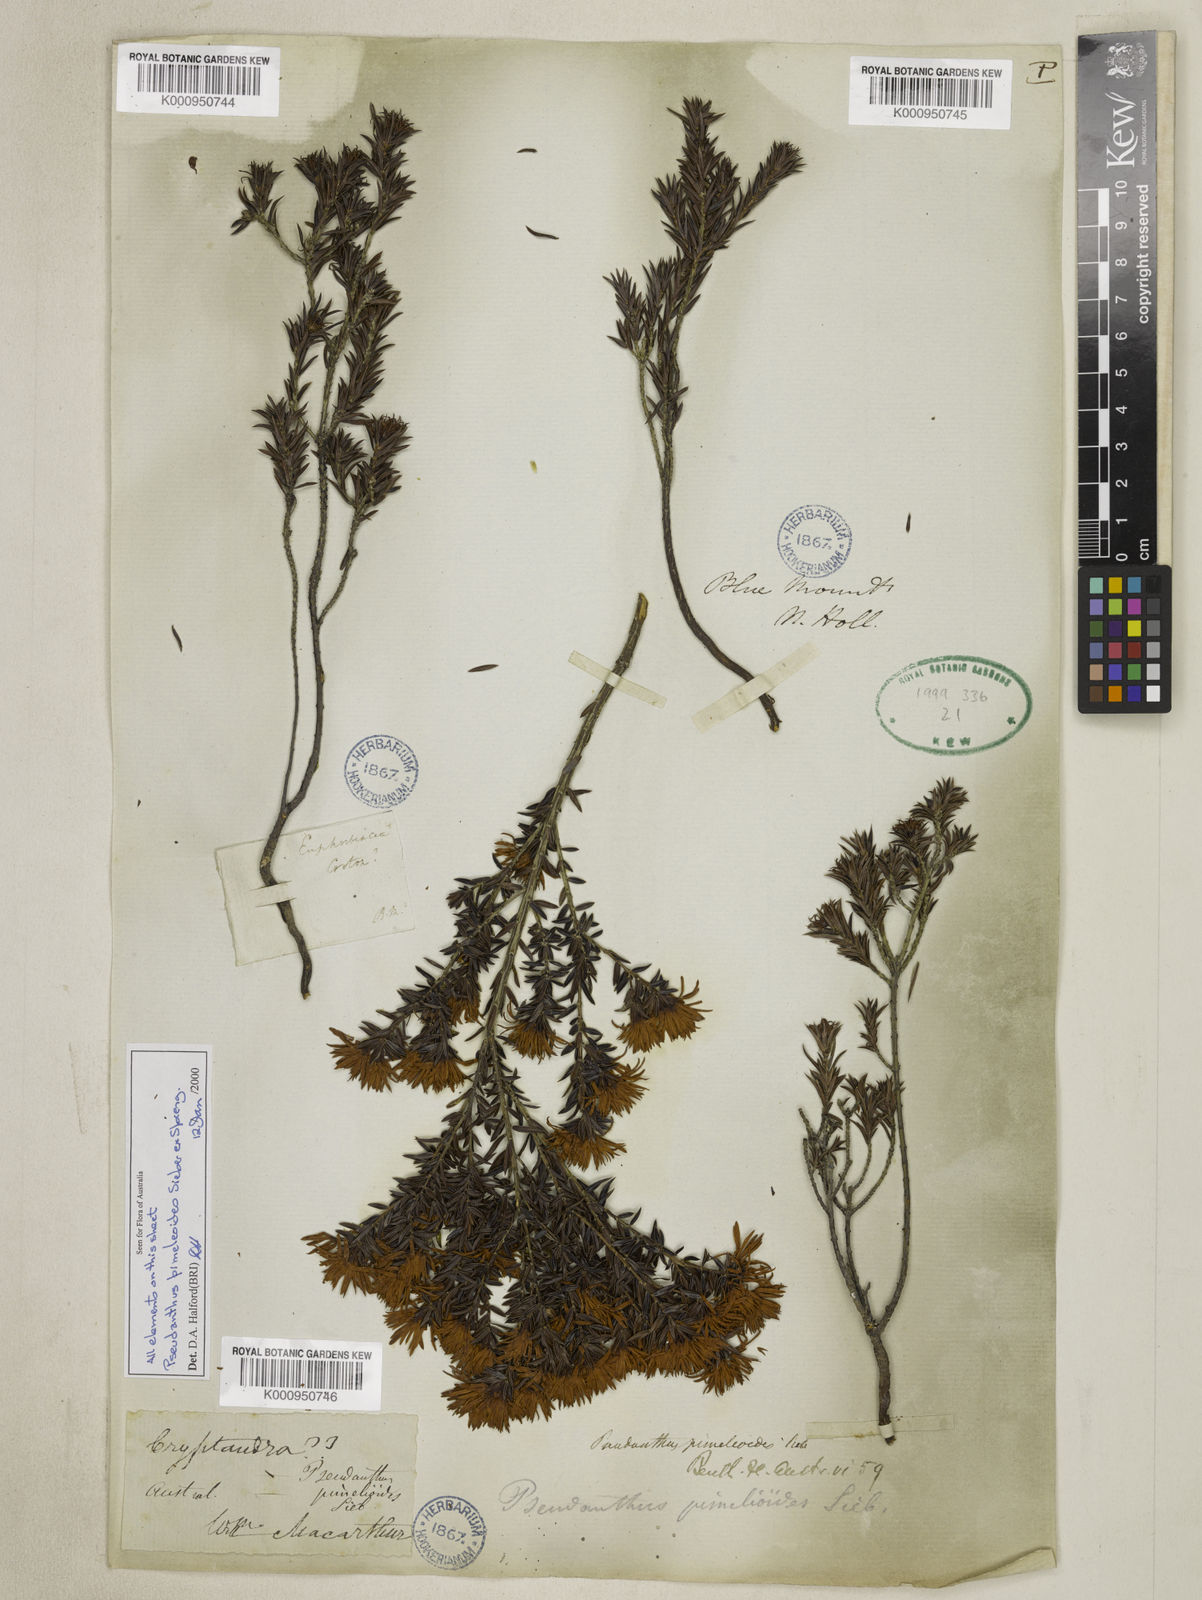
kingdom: Plantae
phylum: Tracheophyta
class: Magnoliopsida
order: Malpighiales
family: Picrodendraceae
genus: Pseudanthus
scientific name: Pseudanthus pimeleoides
